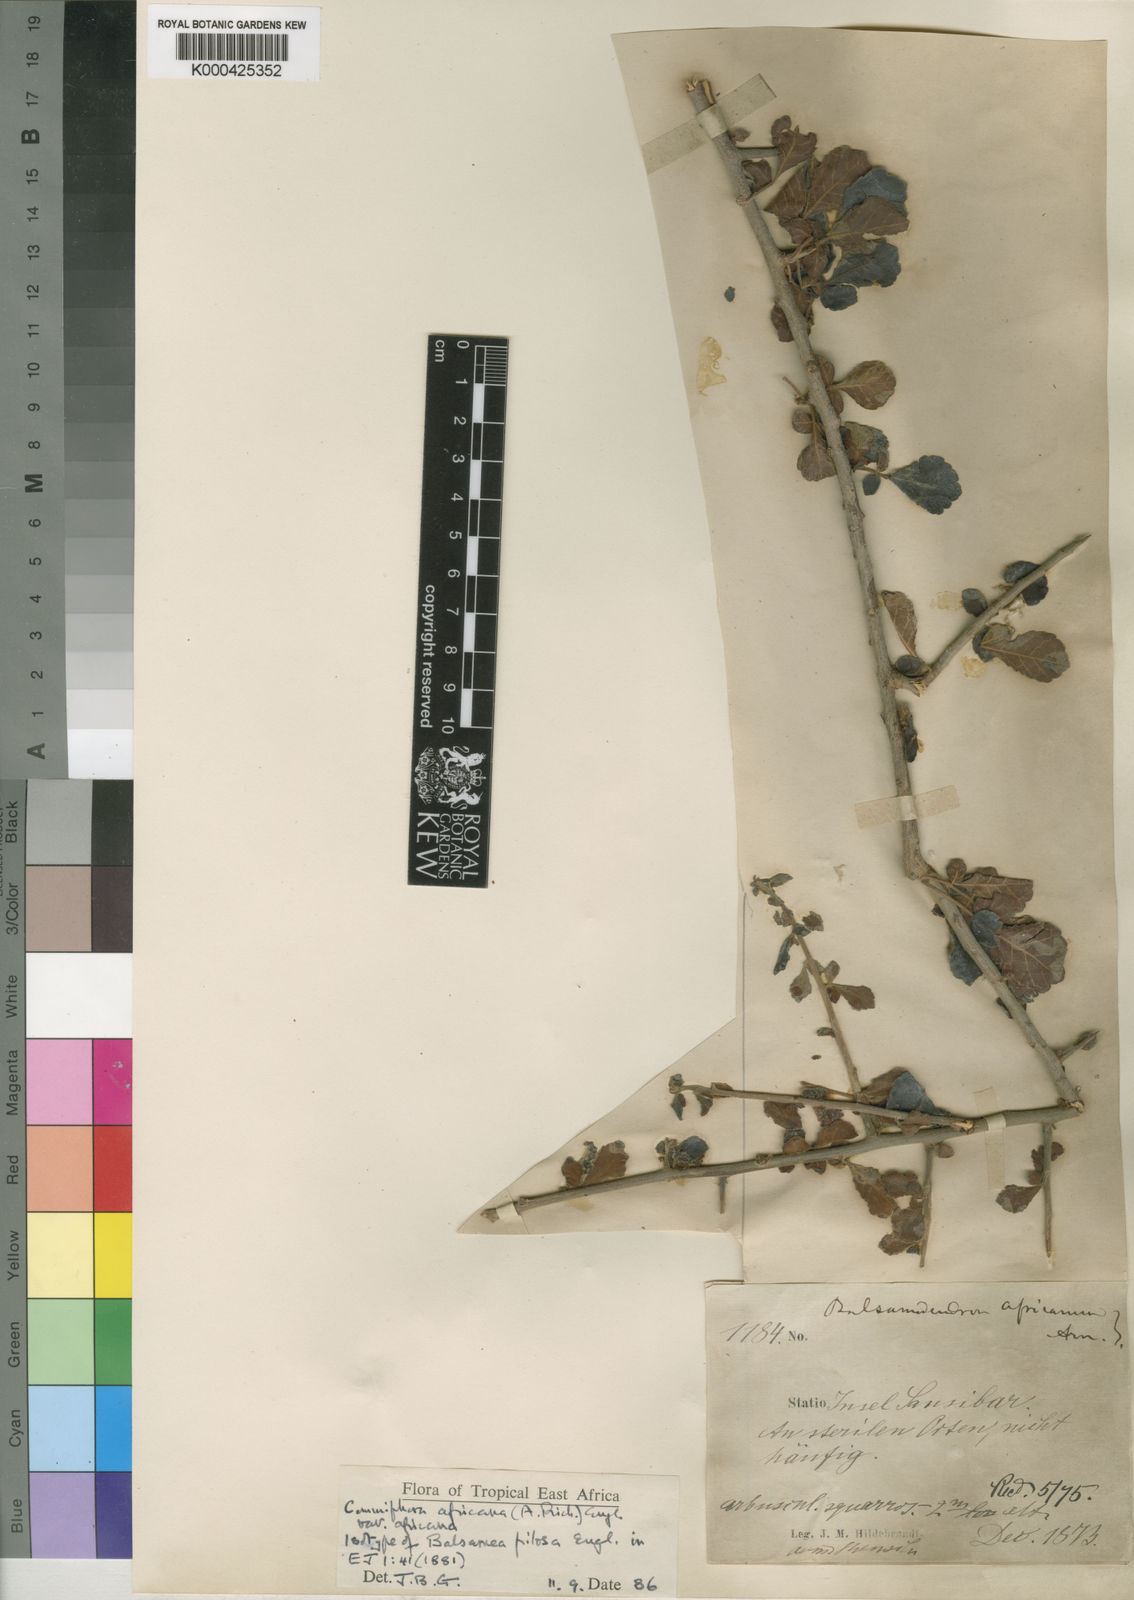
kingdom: Plantae
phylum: Tracheophyta
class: Magnoliopsida
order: Sapindales
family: Burseraceae
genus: Commiphora
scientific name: Commiphora africana
